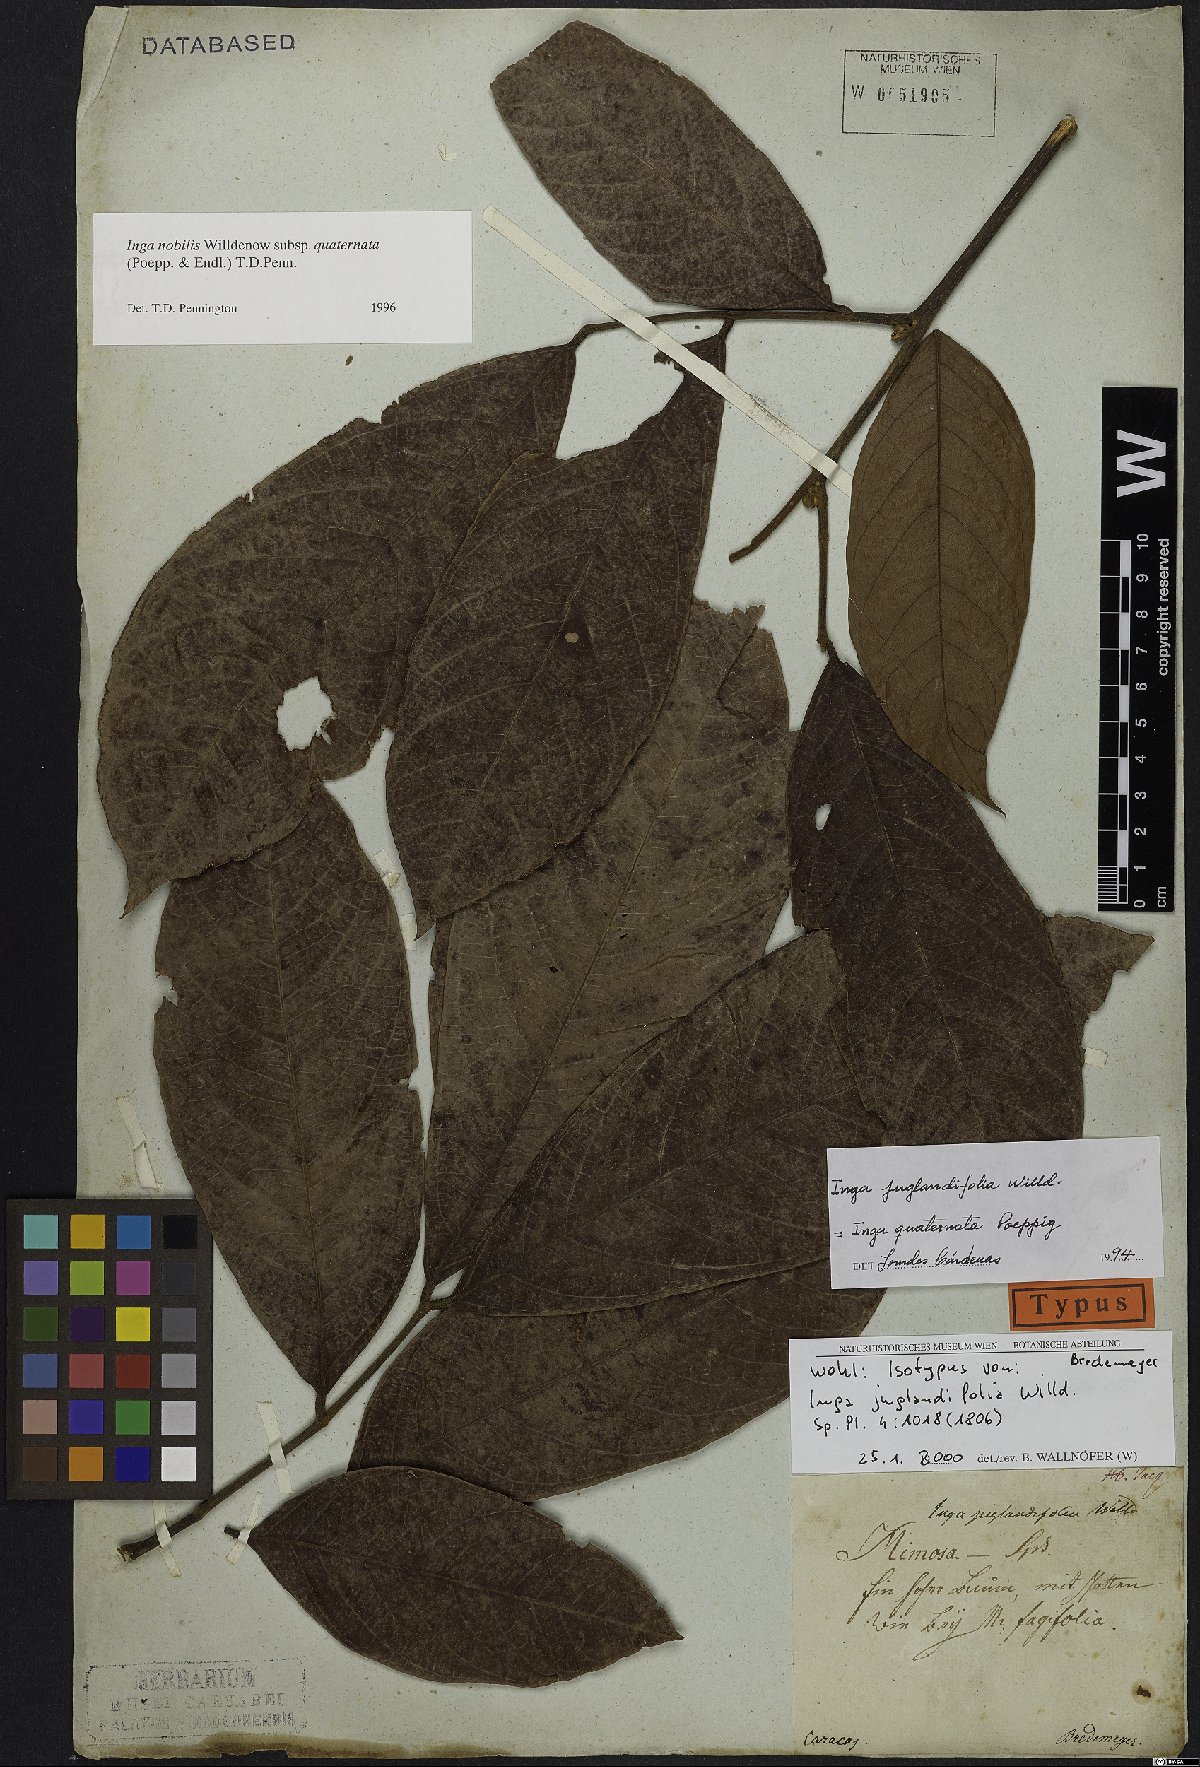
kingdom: Plantae
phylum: Tracheophyta
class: Magnoliopsida
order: Fabales
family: Fabaceae
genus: Inga
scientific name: Inga nobilis
